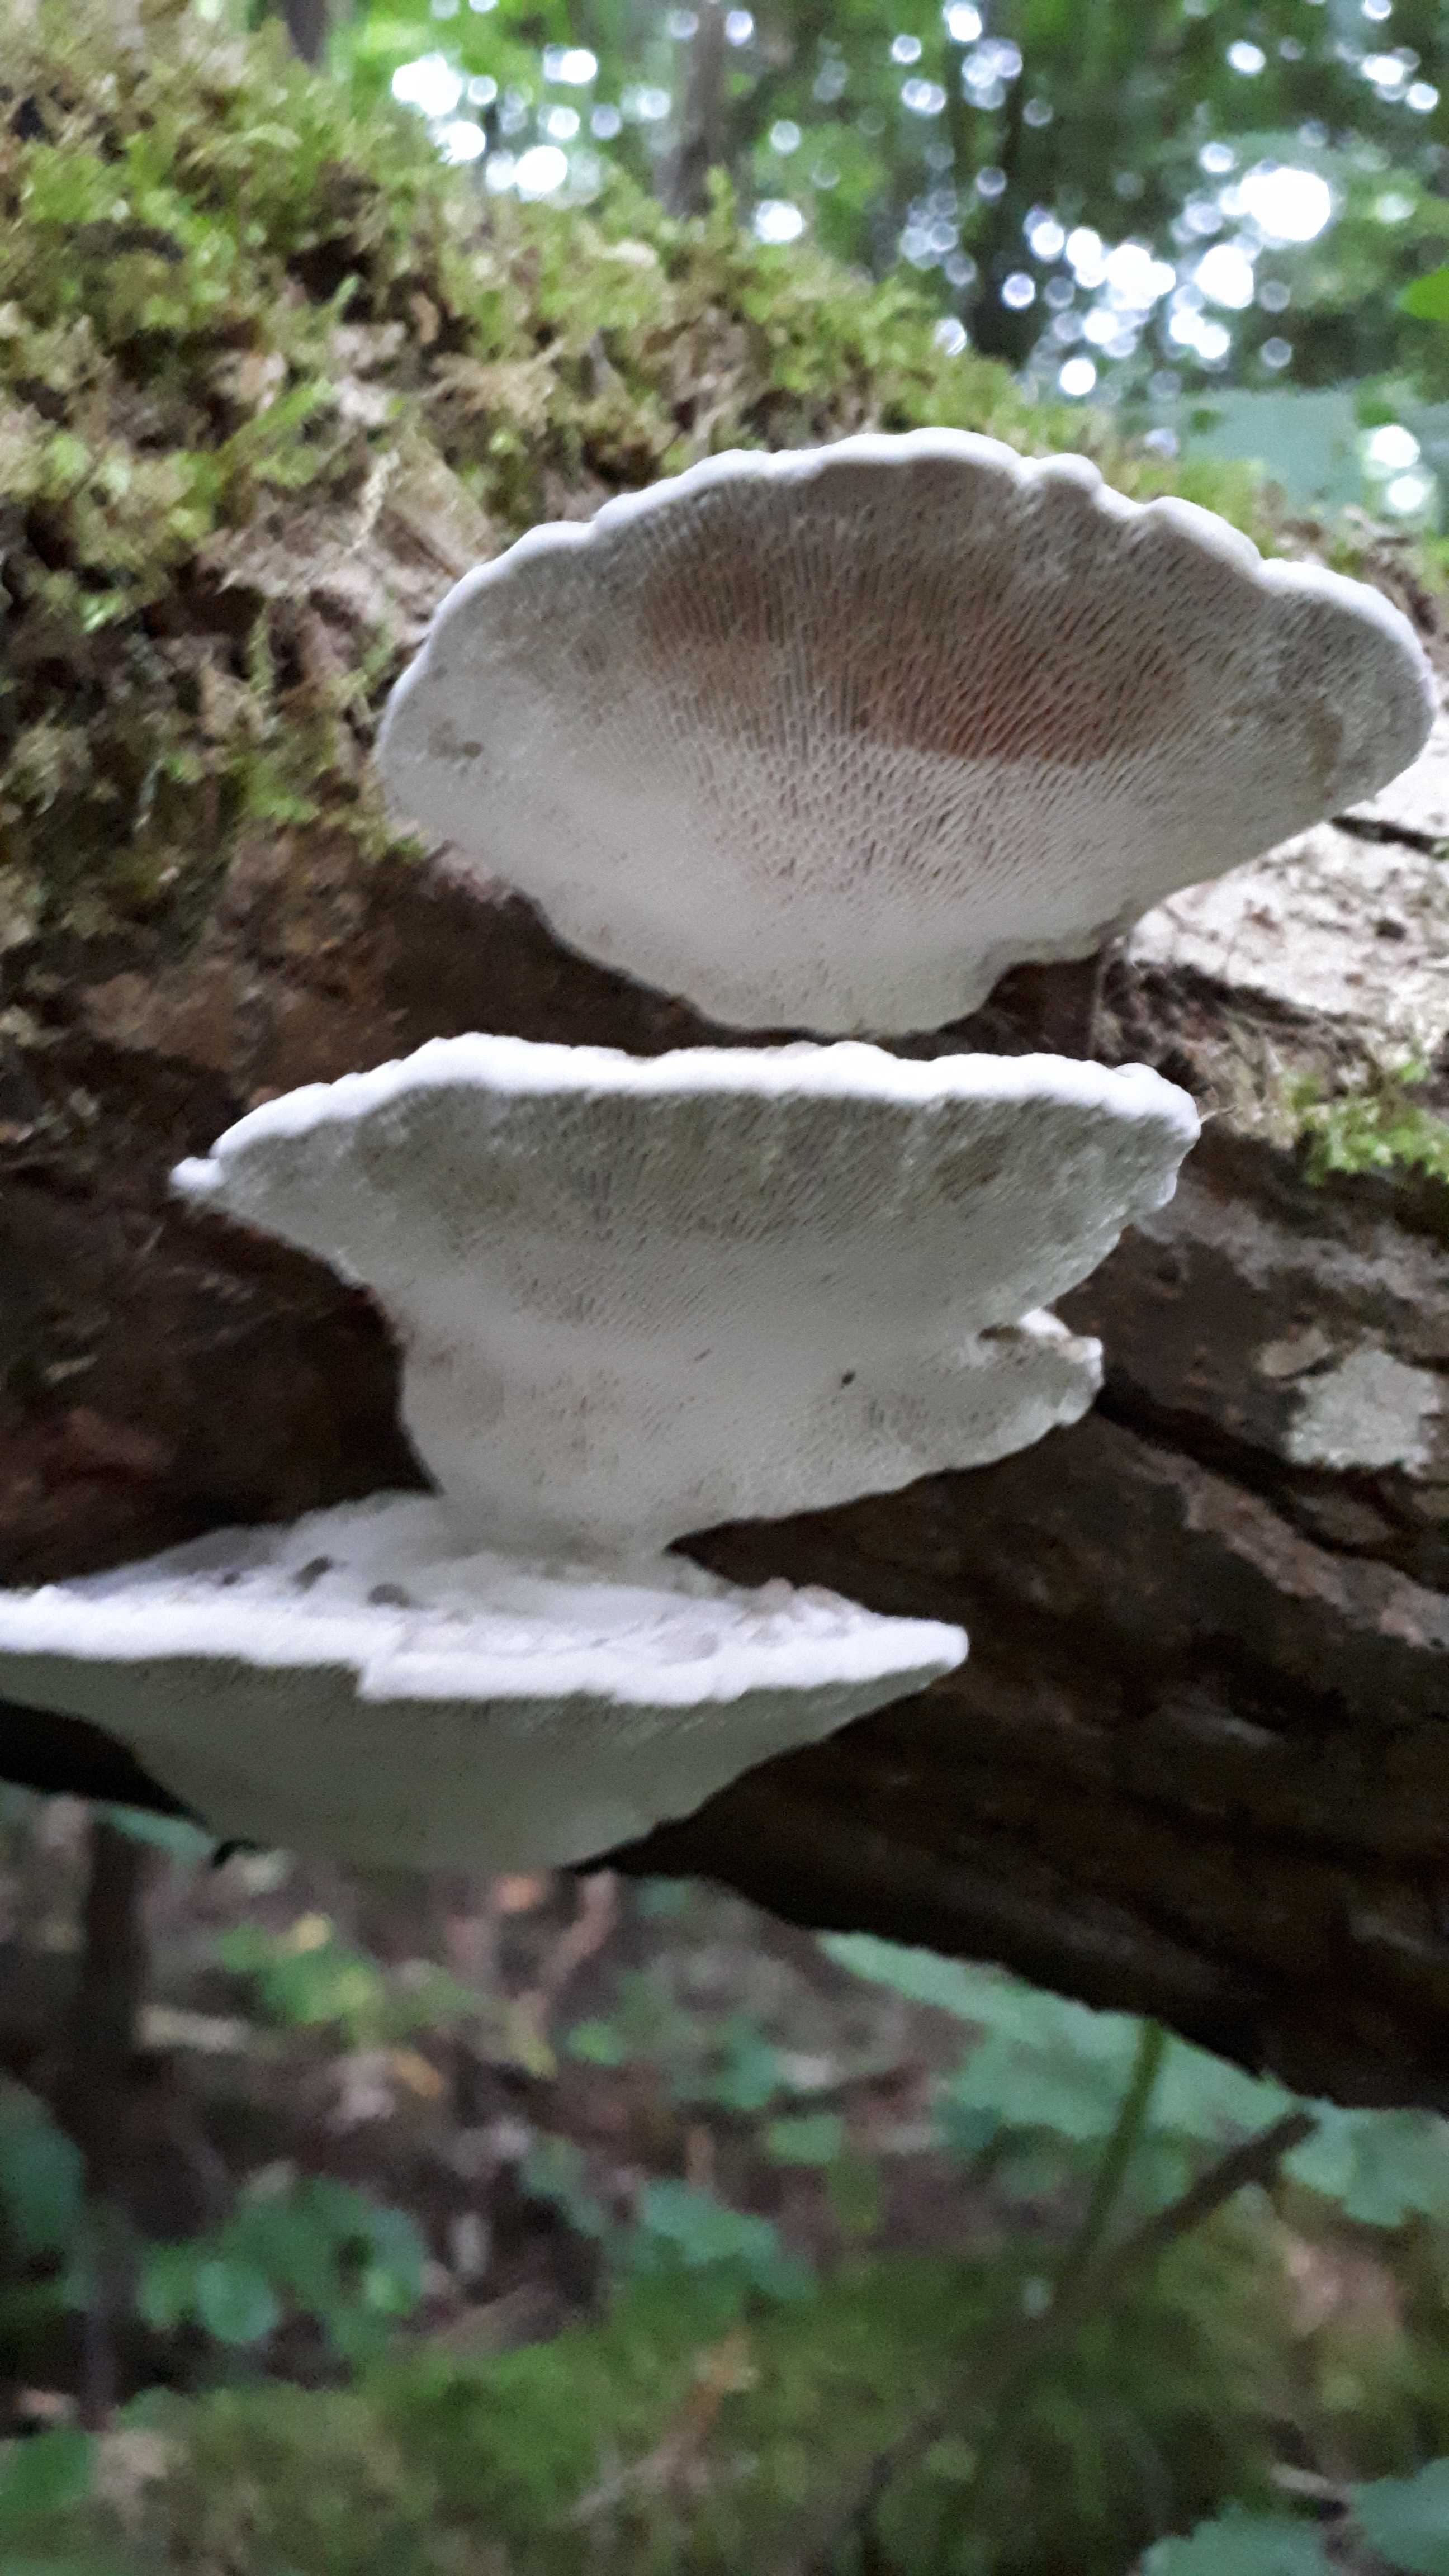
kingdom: Fungi
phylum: Basidiomycota
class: Agaricomycetes
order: Polyporales
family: Polyporaceae
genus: Daedaleopsis
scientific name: Daedaleopsis confragosa
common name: rødmende læderporesvamp
